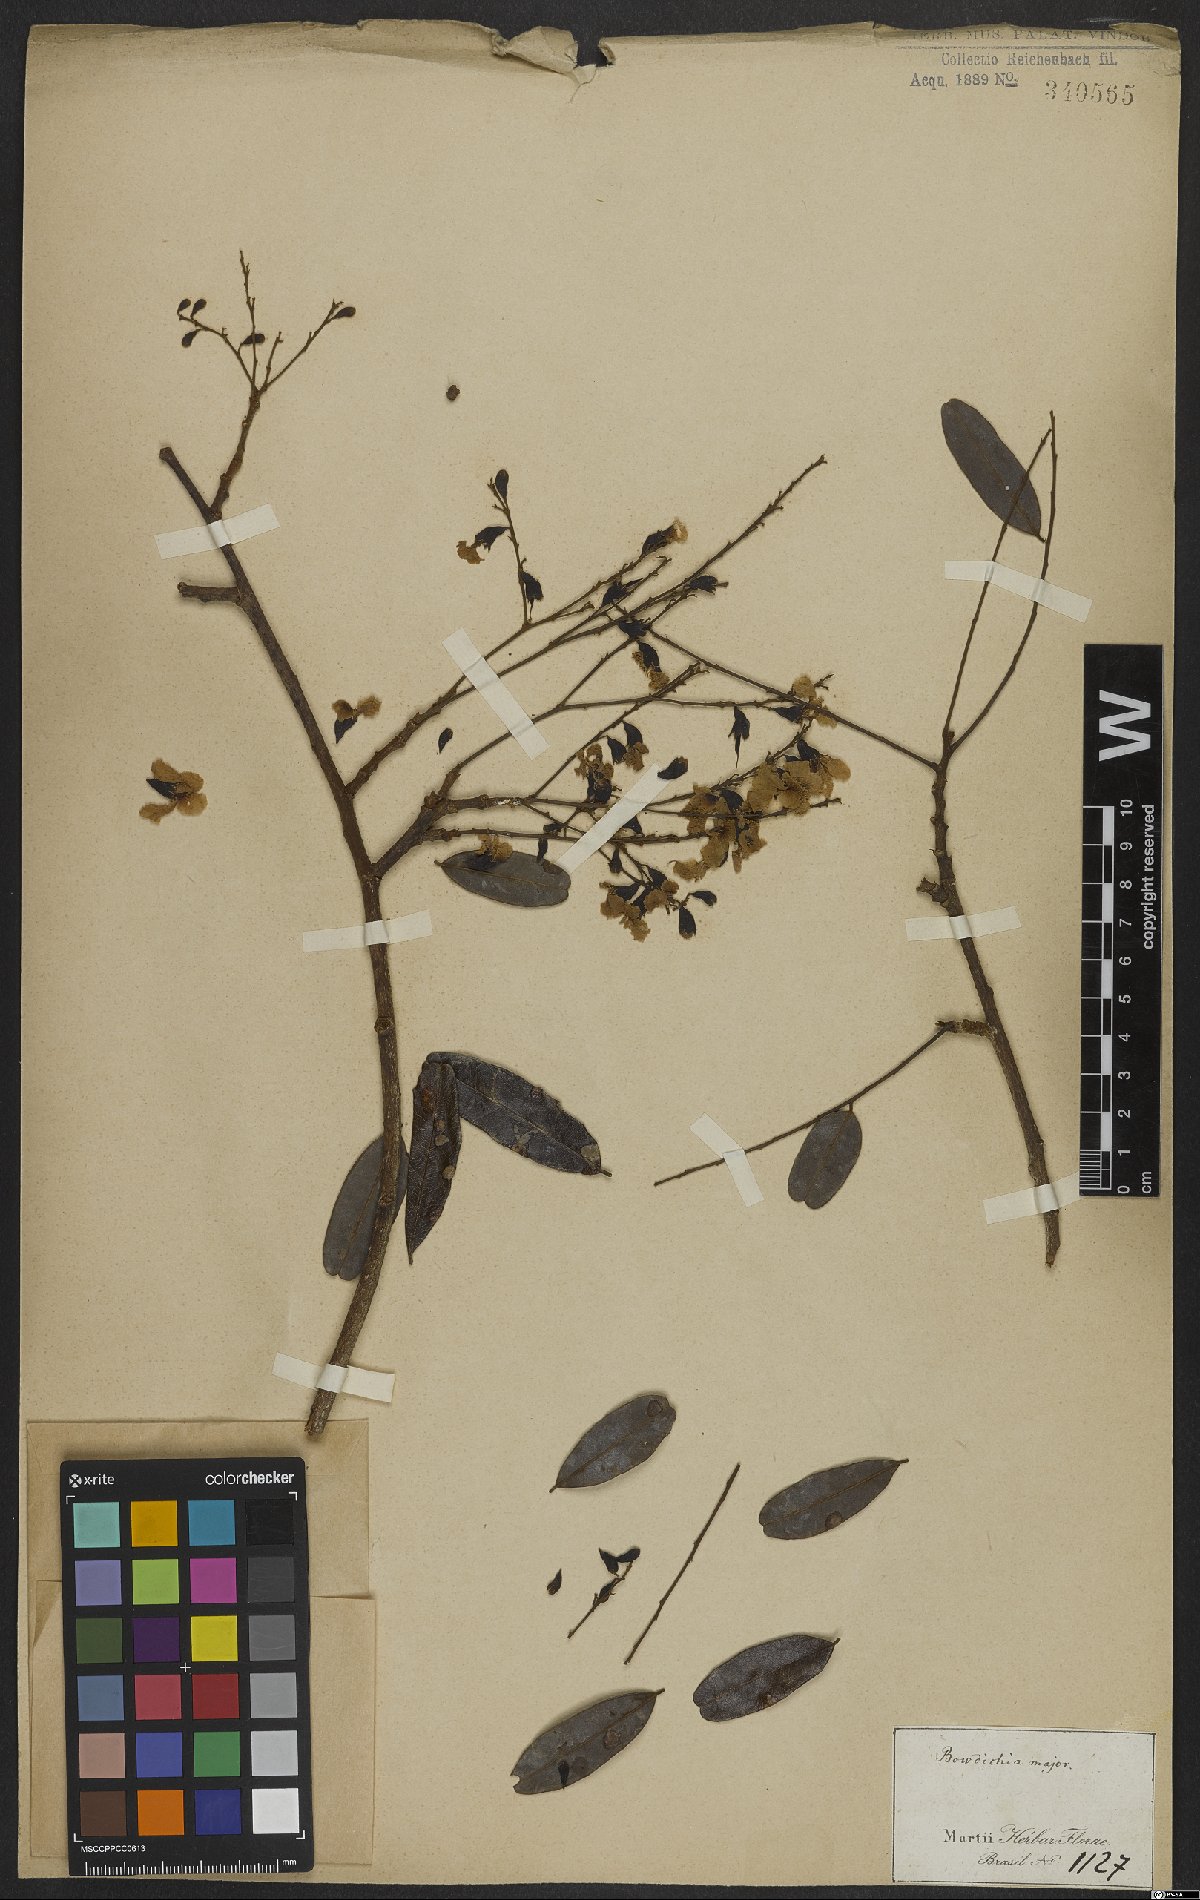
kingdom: Plantae
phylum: Tracheophyta
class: Magnoliopsida
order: Fabales
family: Fabaceae
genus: Bowdichia
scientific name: Bowdichia virgilioides
